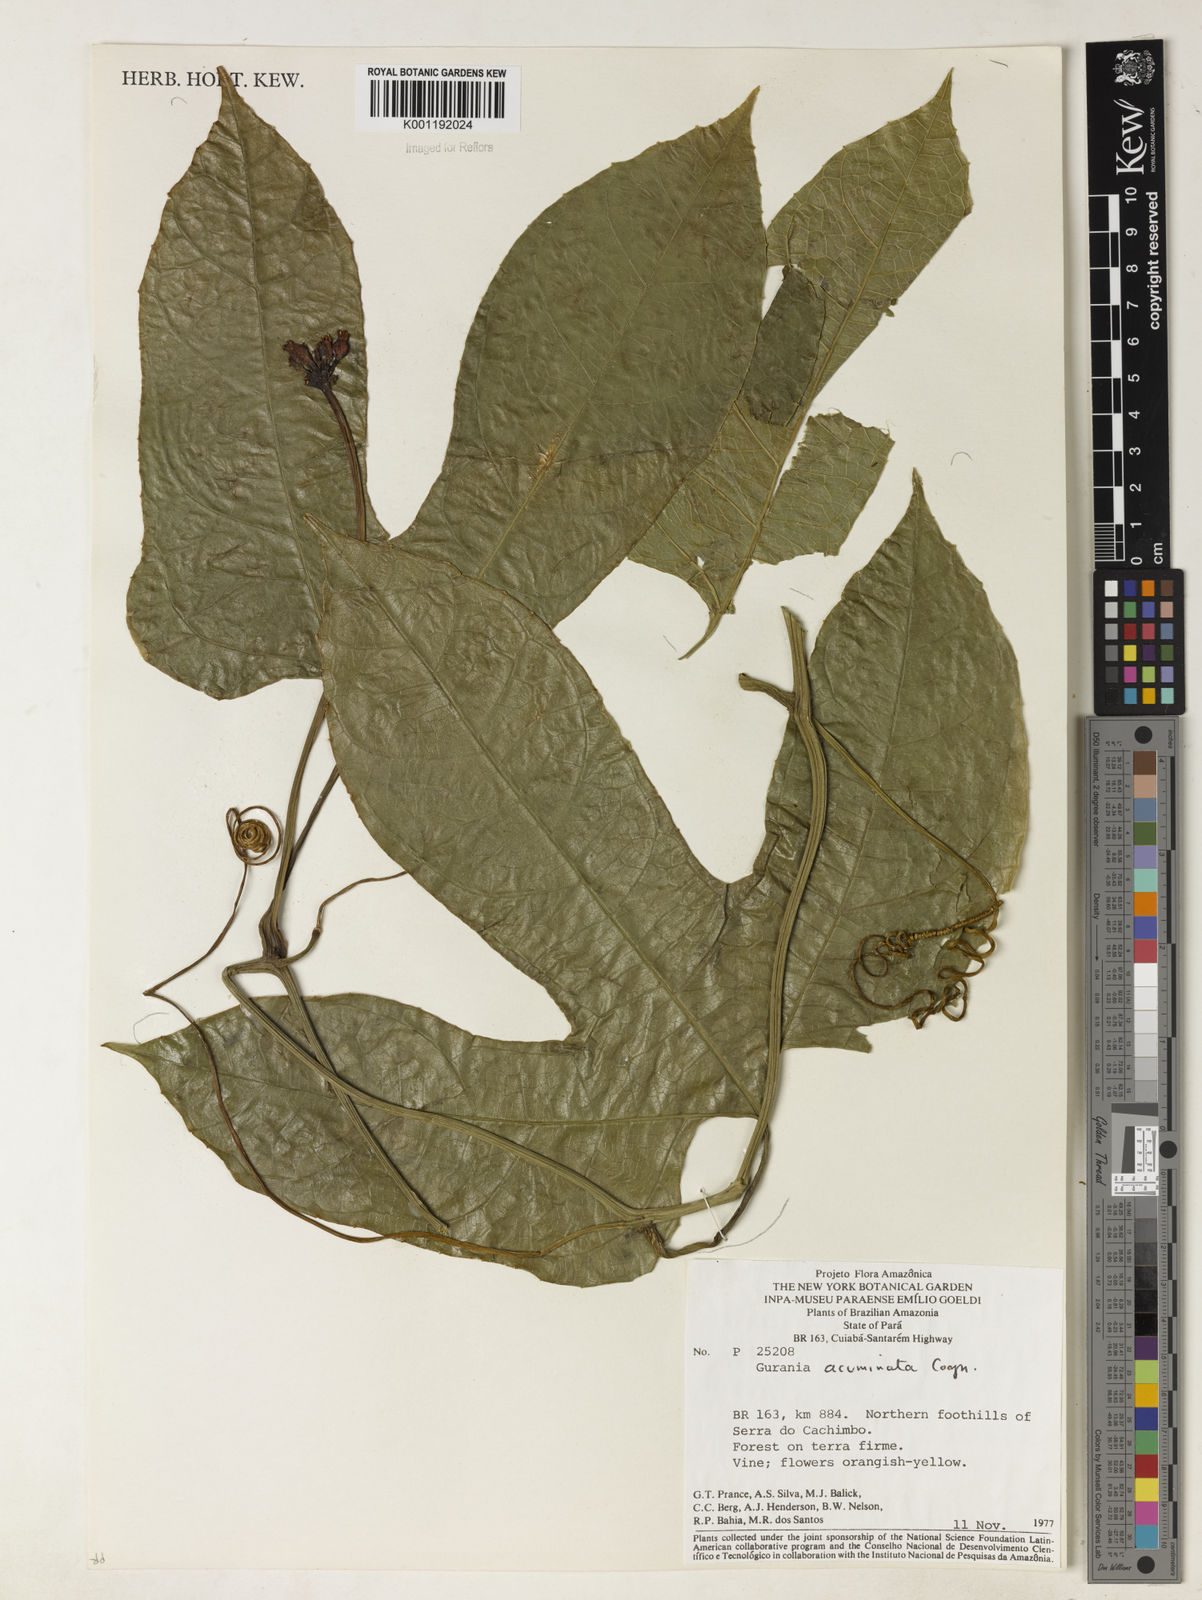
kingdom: Plantae
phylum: Tracheophyta
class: Magnoliopsida
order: Cucurbitales
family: Cucurbitaceae
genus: Gurania
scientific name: Gurania acuminata
